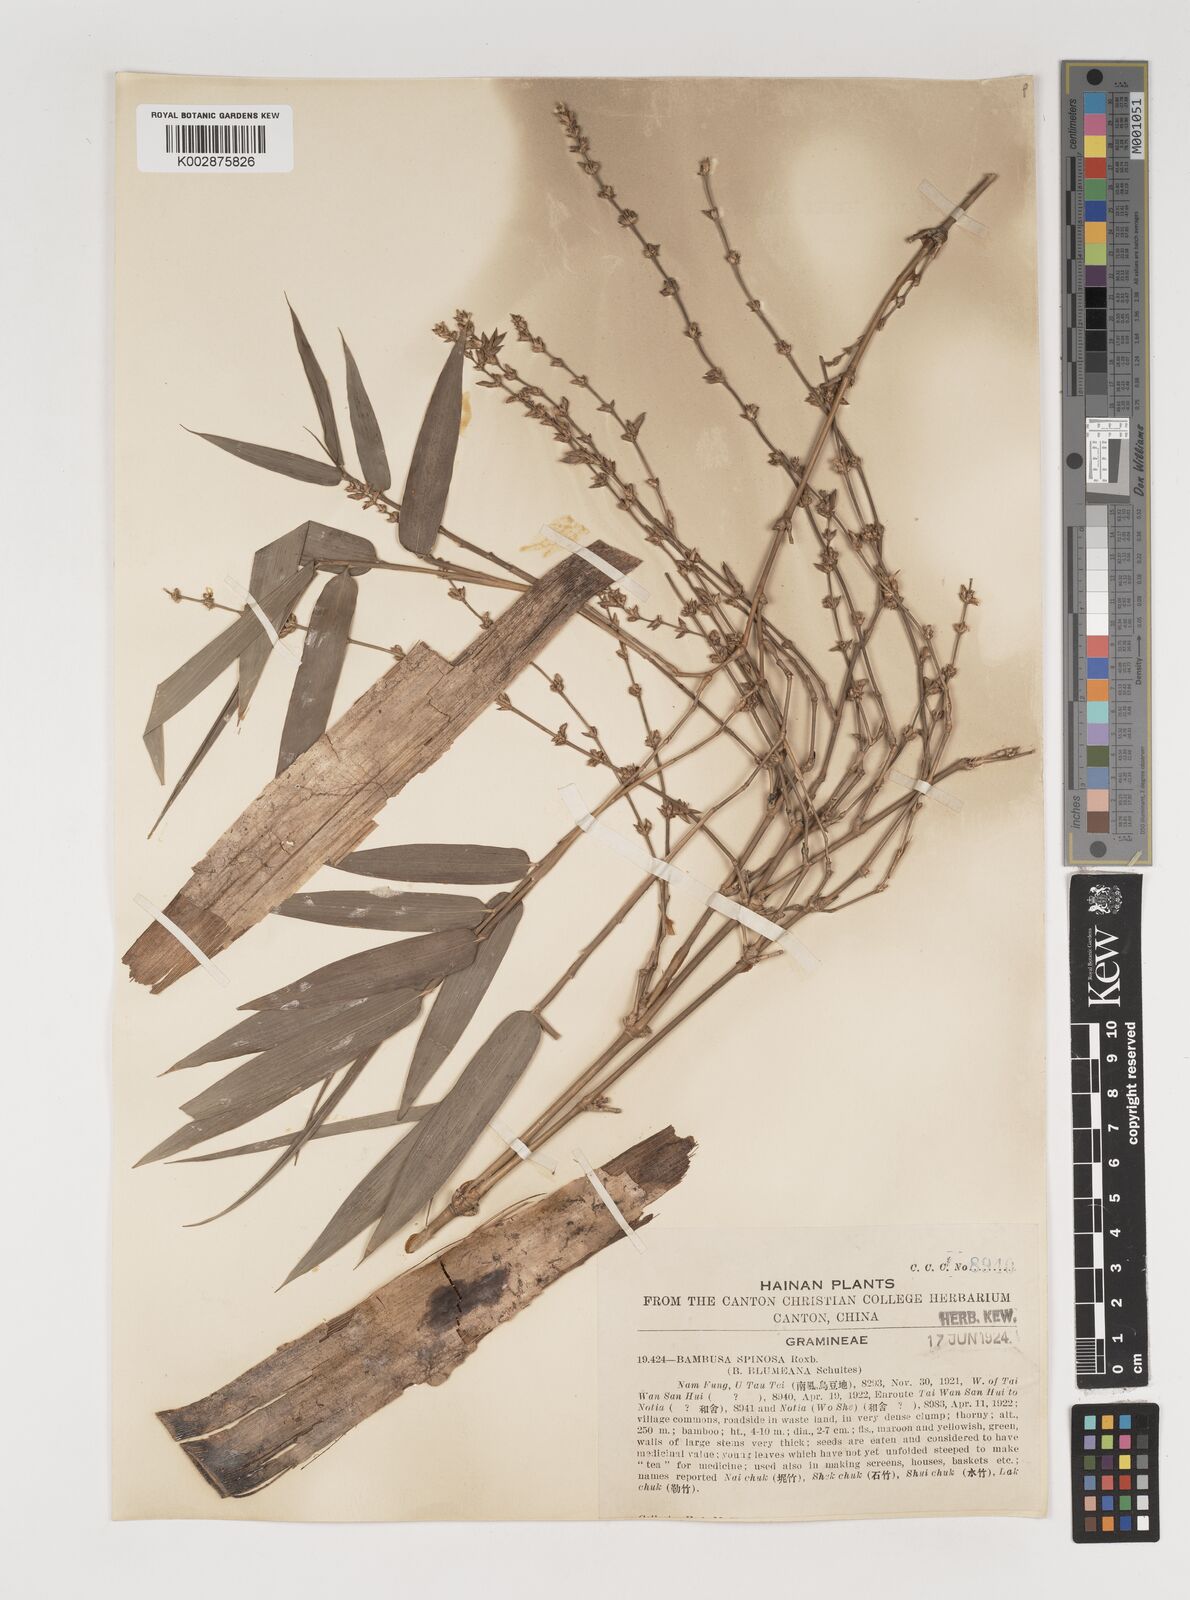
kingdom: Plantae
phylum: Tracheophyta
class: Liliopsida
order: Poales
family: Poaceae
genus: Bambusa
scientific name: Bambusa bambos
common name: Indian thorny bamboo
